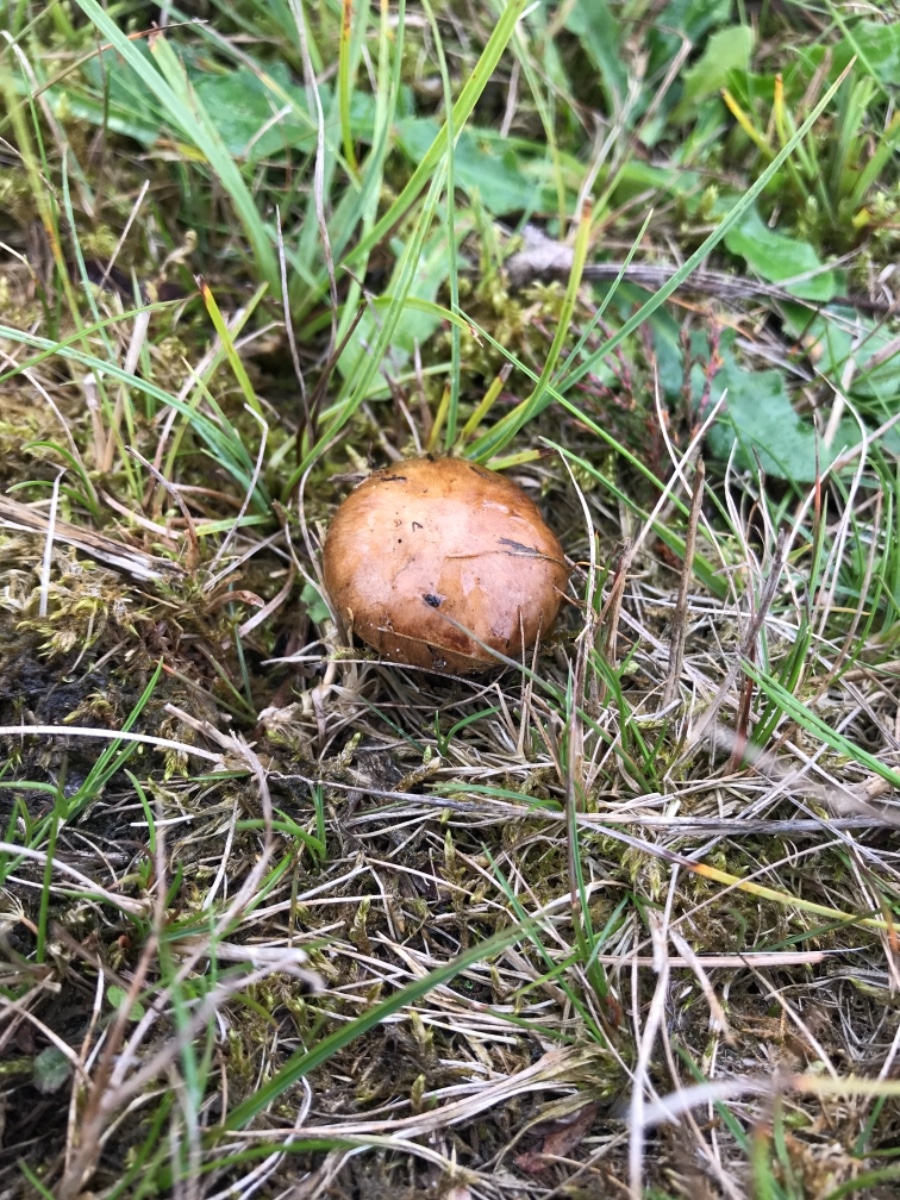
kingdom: Fungi
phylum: Basidiomycota
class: Agaricomycetes
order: Boletales
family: Paxillaceae
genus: Paxillus
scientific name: Paxillus involutus
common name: almindelig netbladhat
